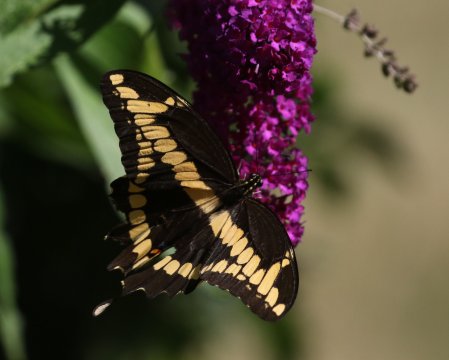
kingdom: Animalia
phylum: Arthropoda
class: Insecta
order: Lepidoptera
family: Papilionidae
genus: Papilio
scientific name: Papilio cresphontes
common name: Eastern Giant Swallowtail
